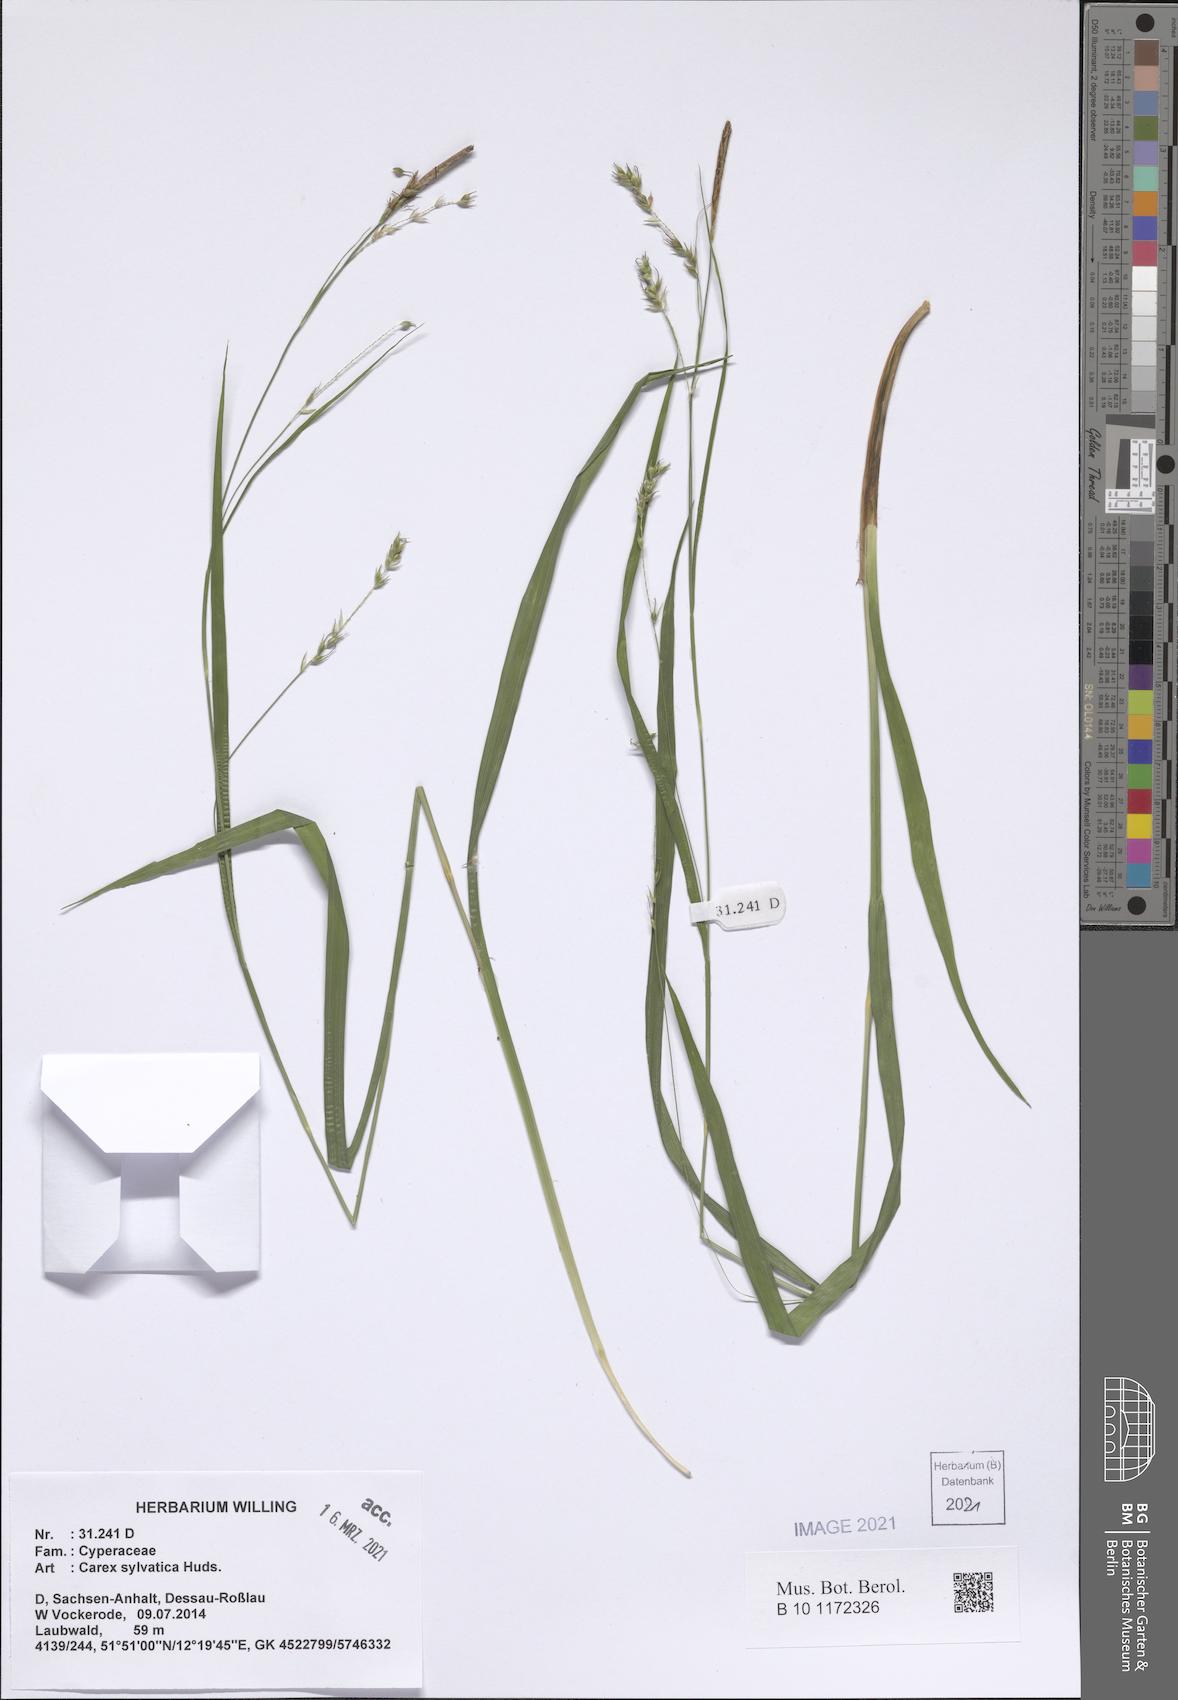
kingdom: Plantae
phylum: Tracheophyta
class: Liliopsida
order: Poales
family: Cyperaceae
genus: Carex
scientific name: Carex sylvatica
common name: Wood-sedge
